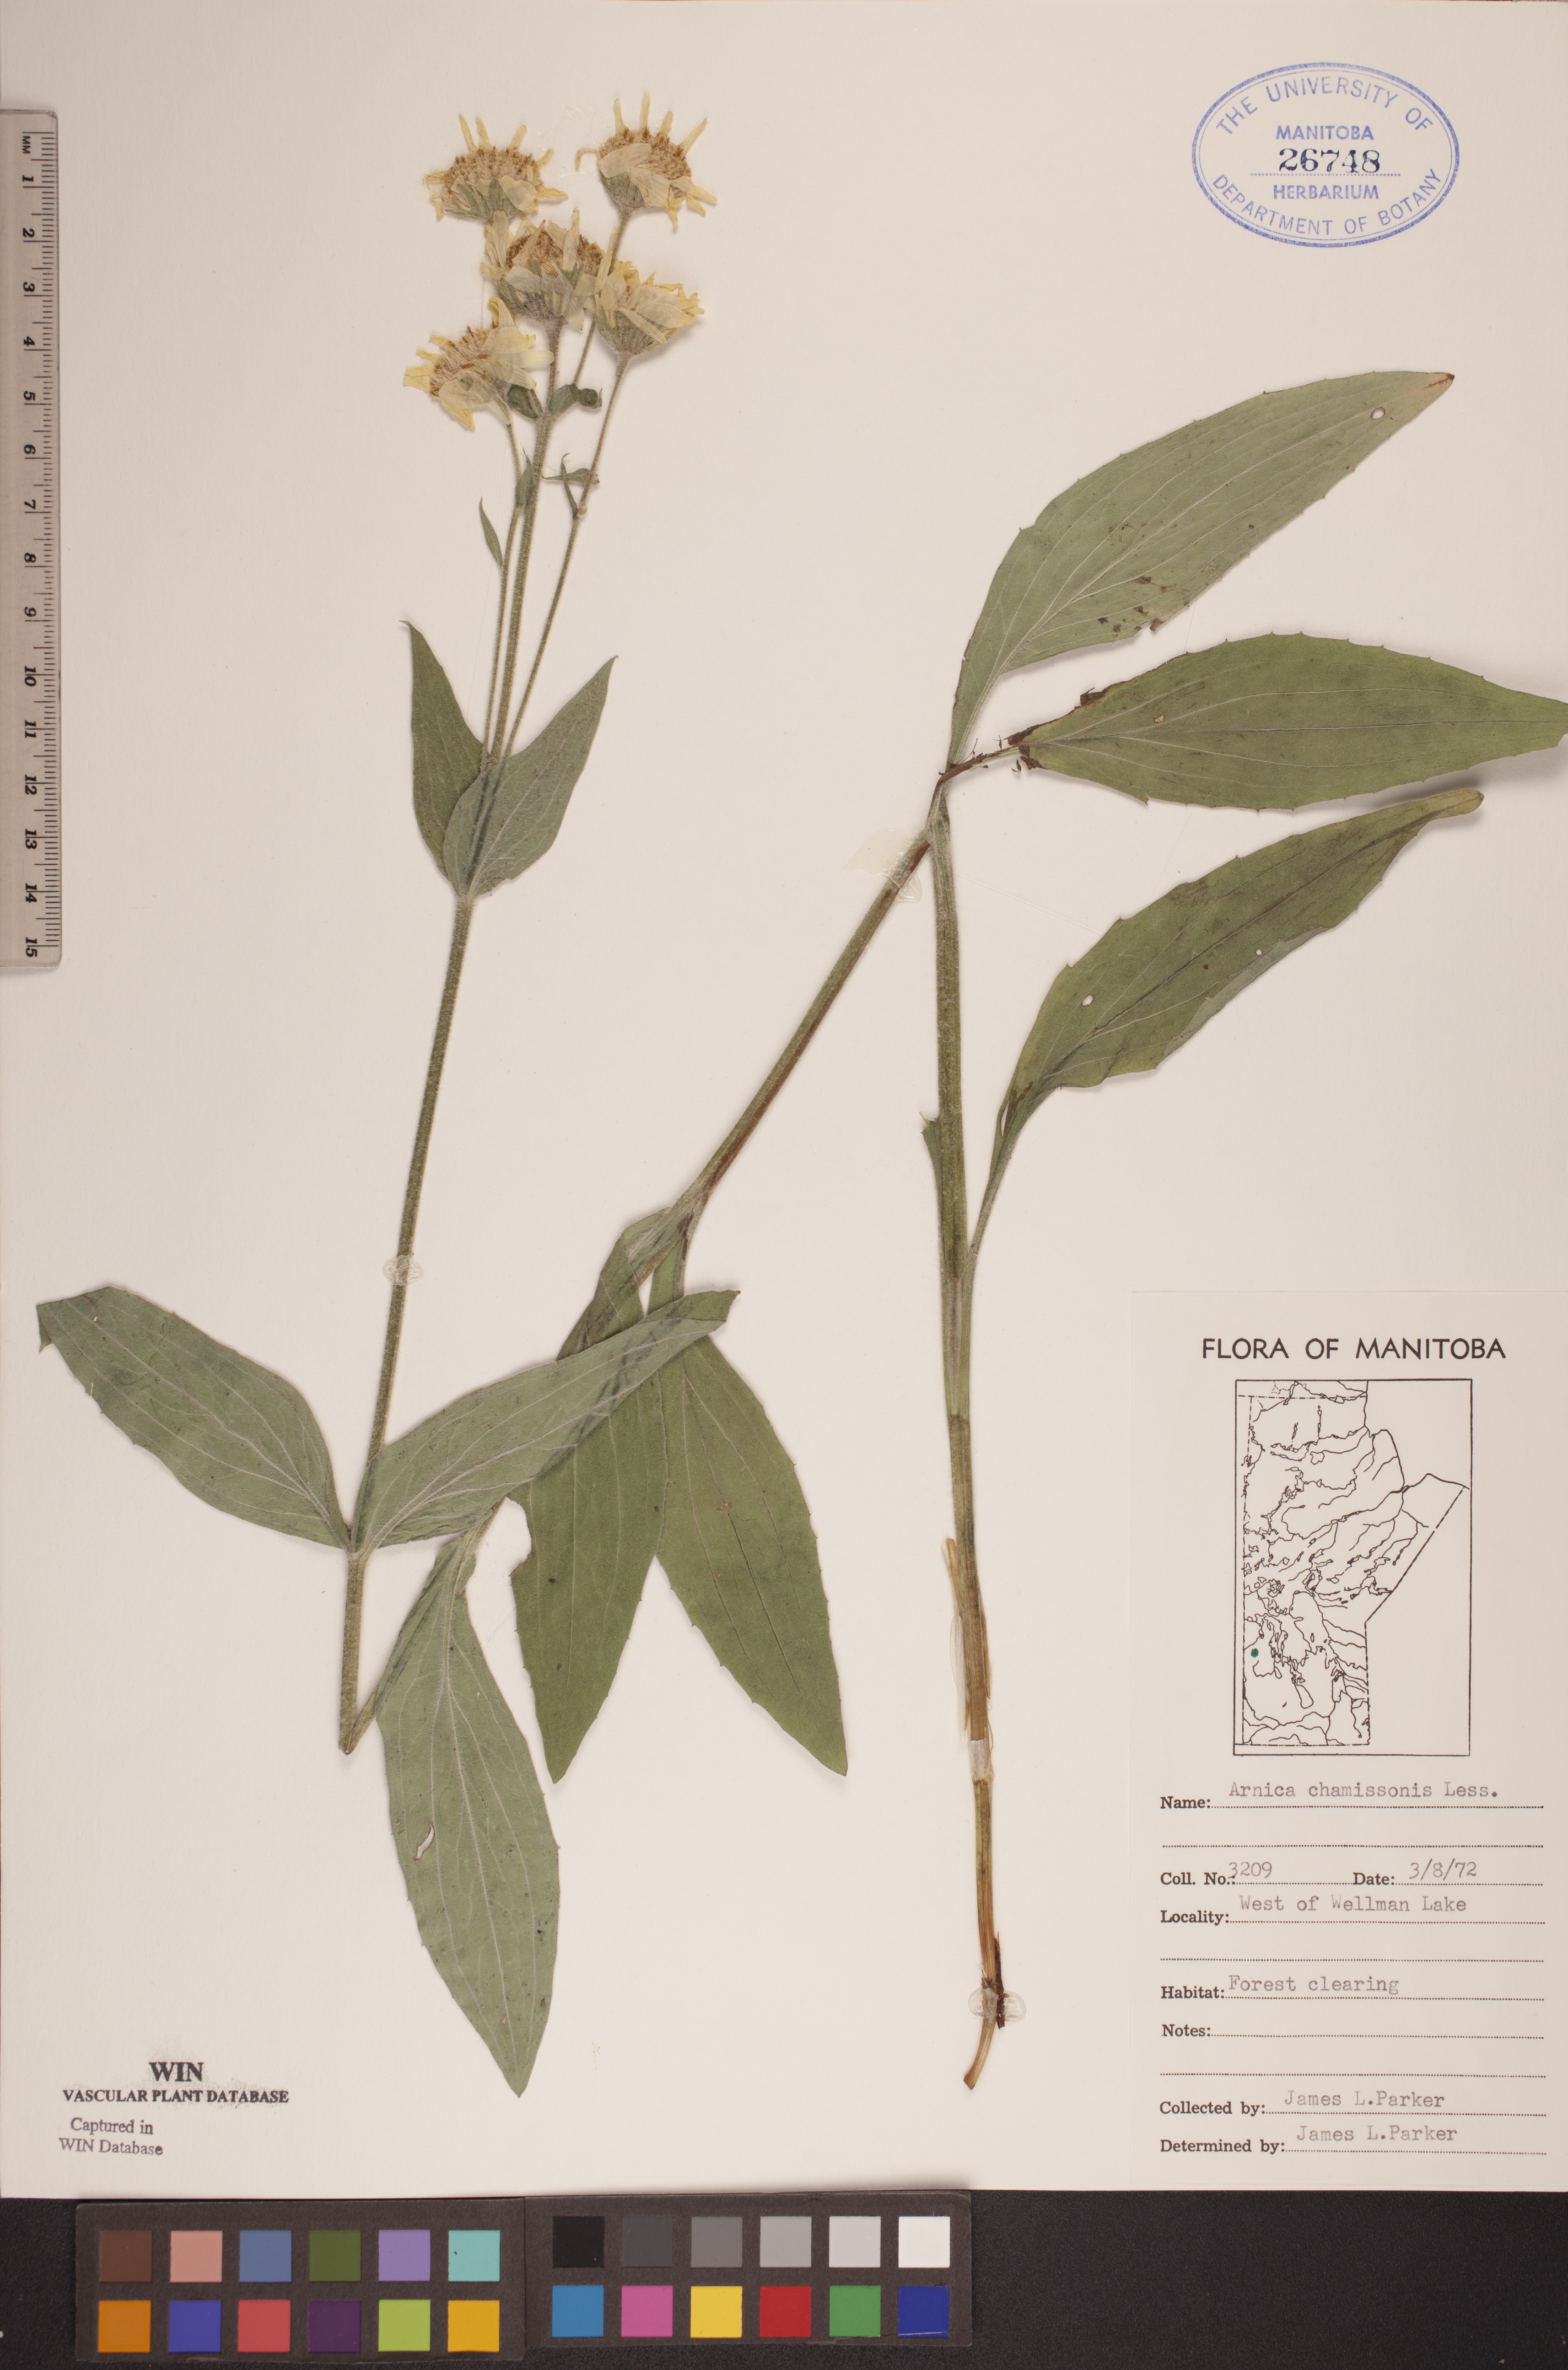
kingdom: Plantae
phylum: Tracheophyta
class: Magnoliopsida
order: Asterales
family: Asteraceae
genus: Arnica
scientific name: Arnica chamissonis
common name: Leafy arnica
